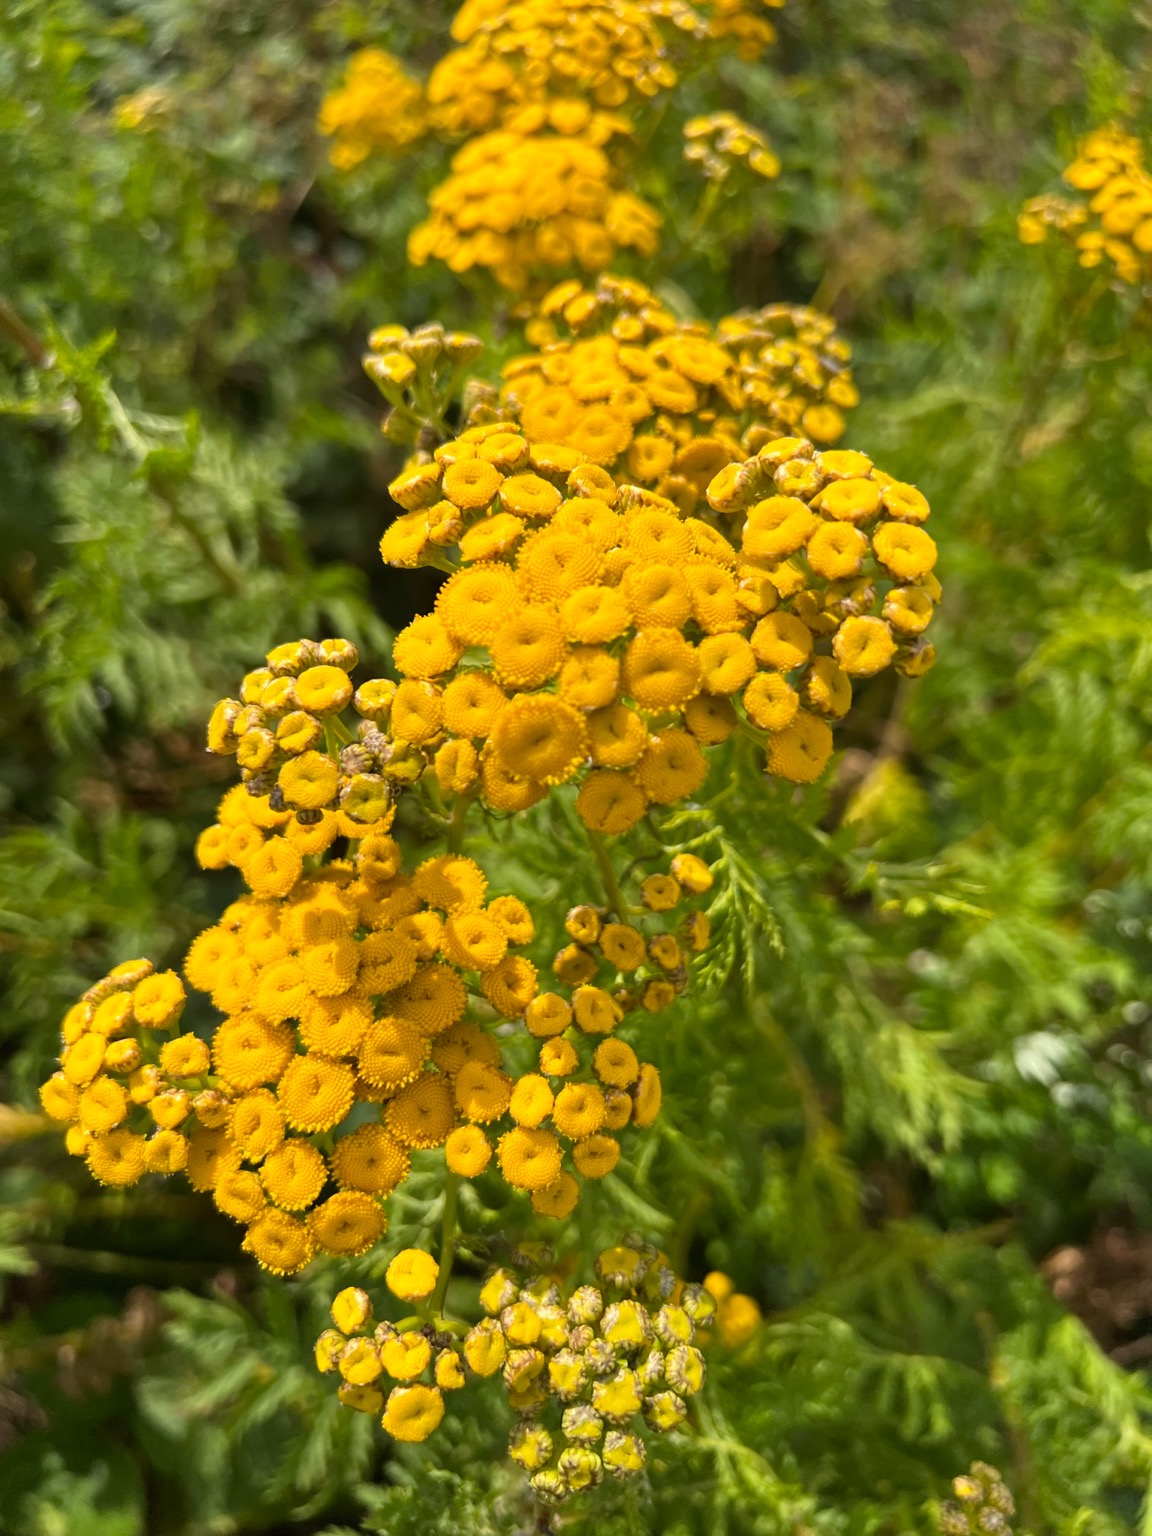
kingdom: Plantae
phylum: Tracheophyta
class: Magnoliopsida
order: Asterales
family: Asteraceae
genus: Tanacetum
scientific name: Tanacetum vulgare
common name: Rejnfan
